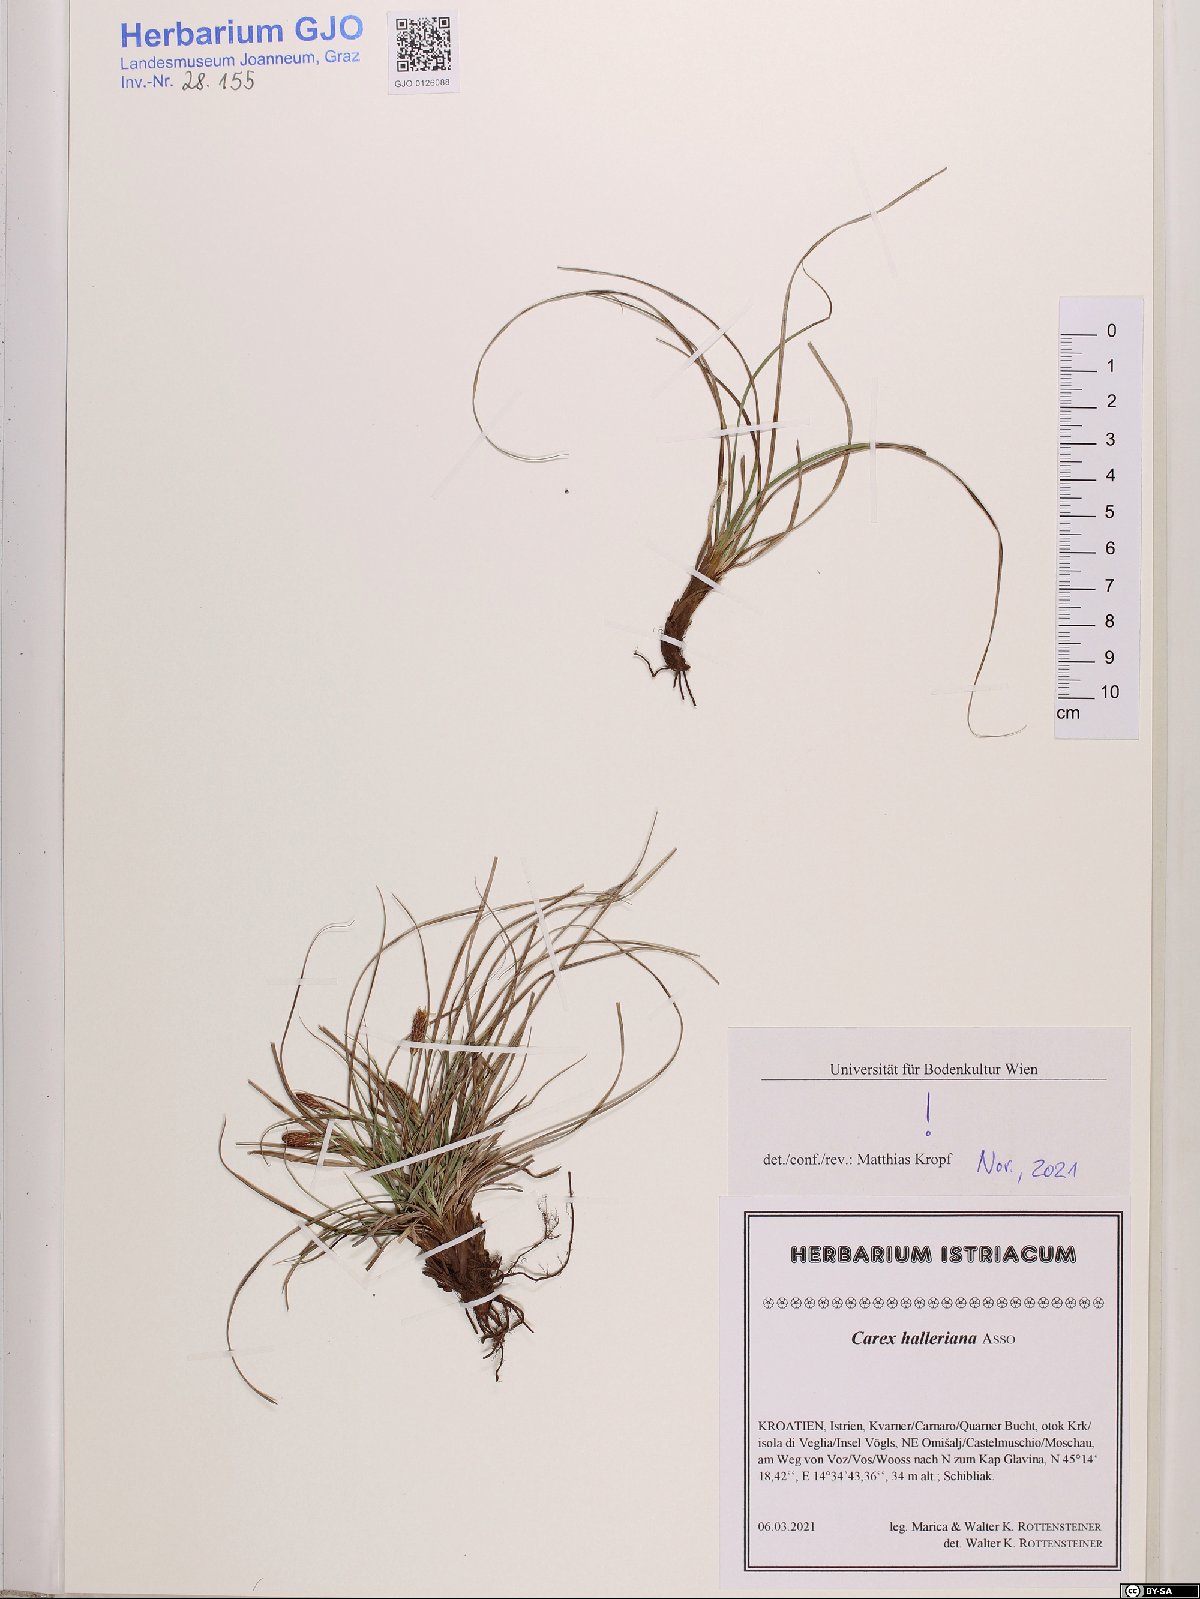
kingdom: Plantae
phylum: Tracheophyta
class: Liliopsida
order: Poales
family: Cyperaceae
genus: Carex
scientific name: Carex halleriana
